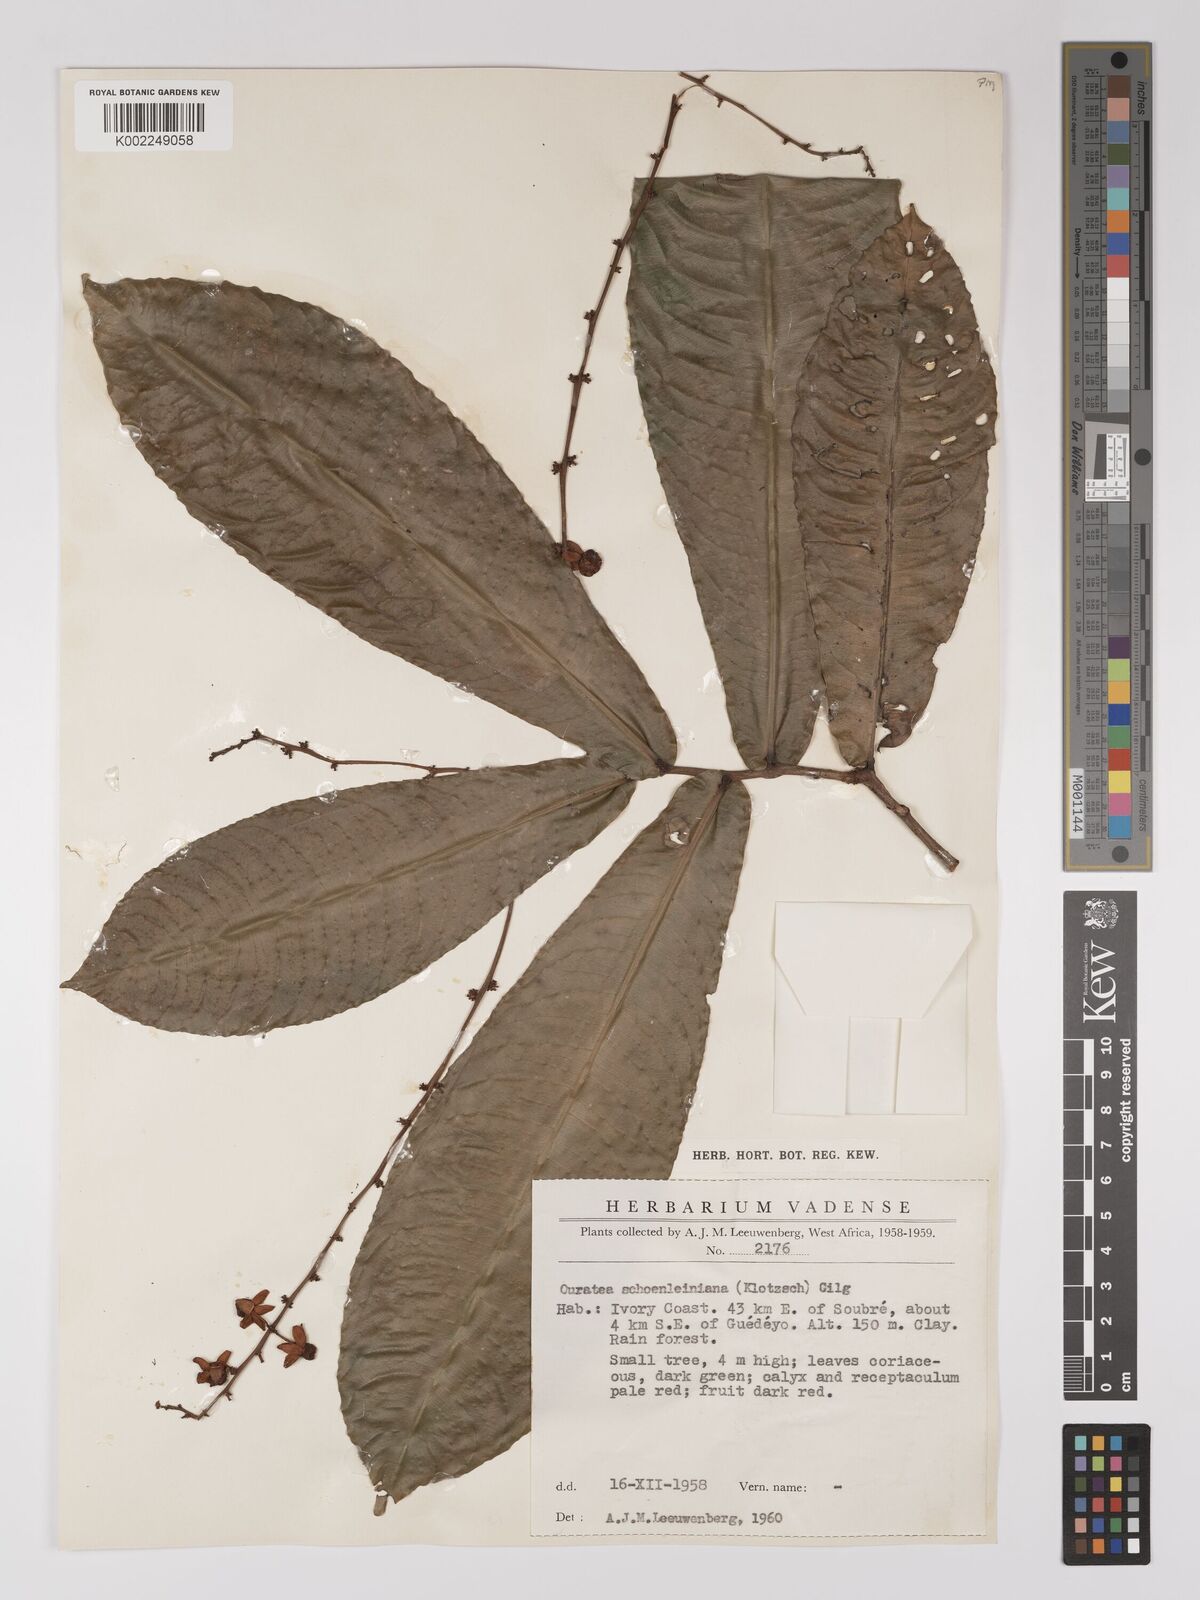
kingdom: Plantae
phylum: Tracheophyta
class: Magnoliopsida
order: Malpighiales
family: Ochnaceae
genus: Campylospermum
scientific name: Campylospermum schoenleinianum
